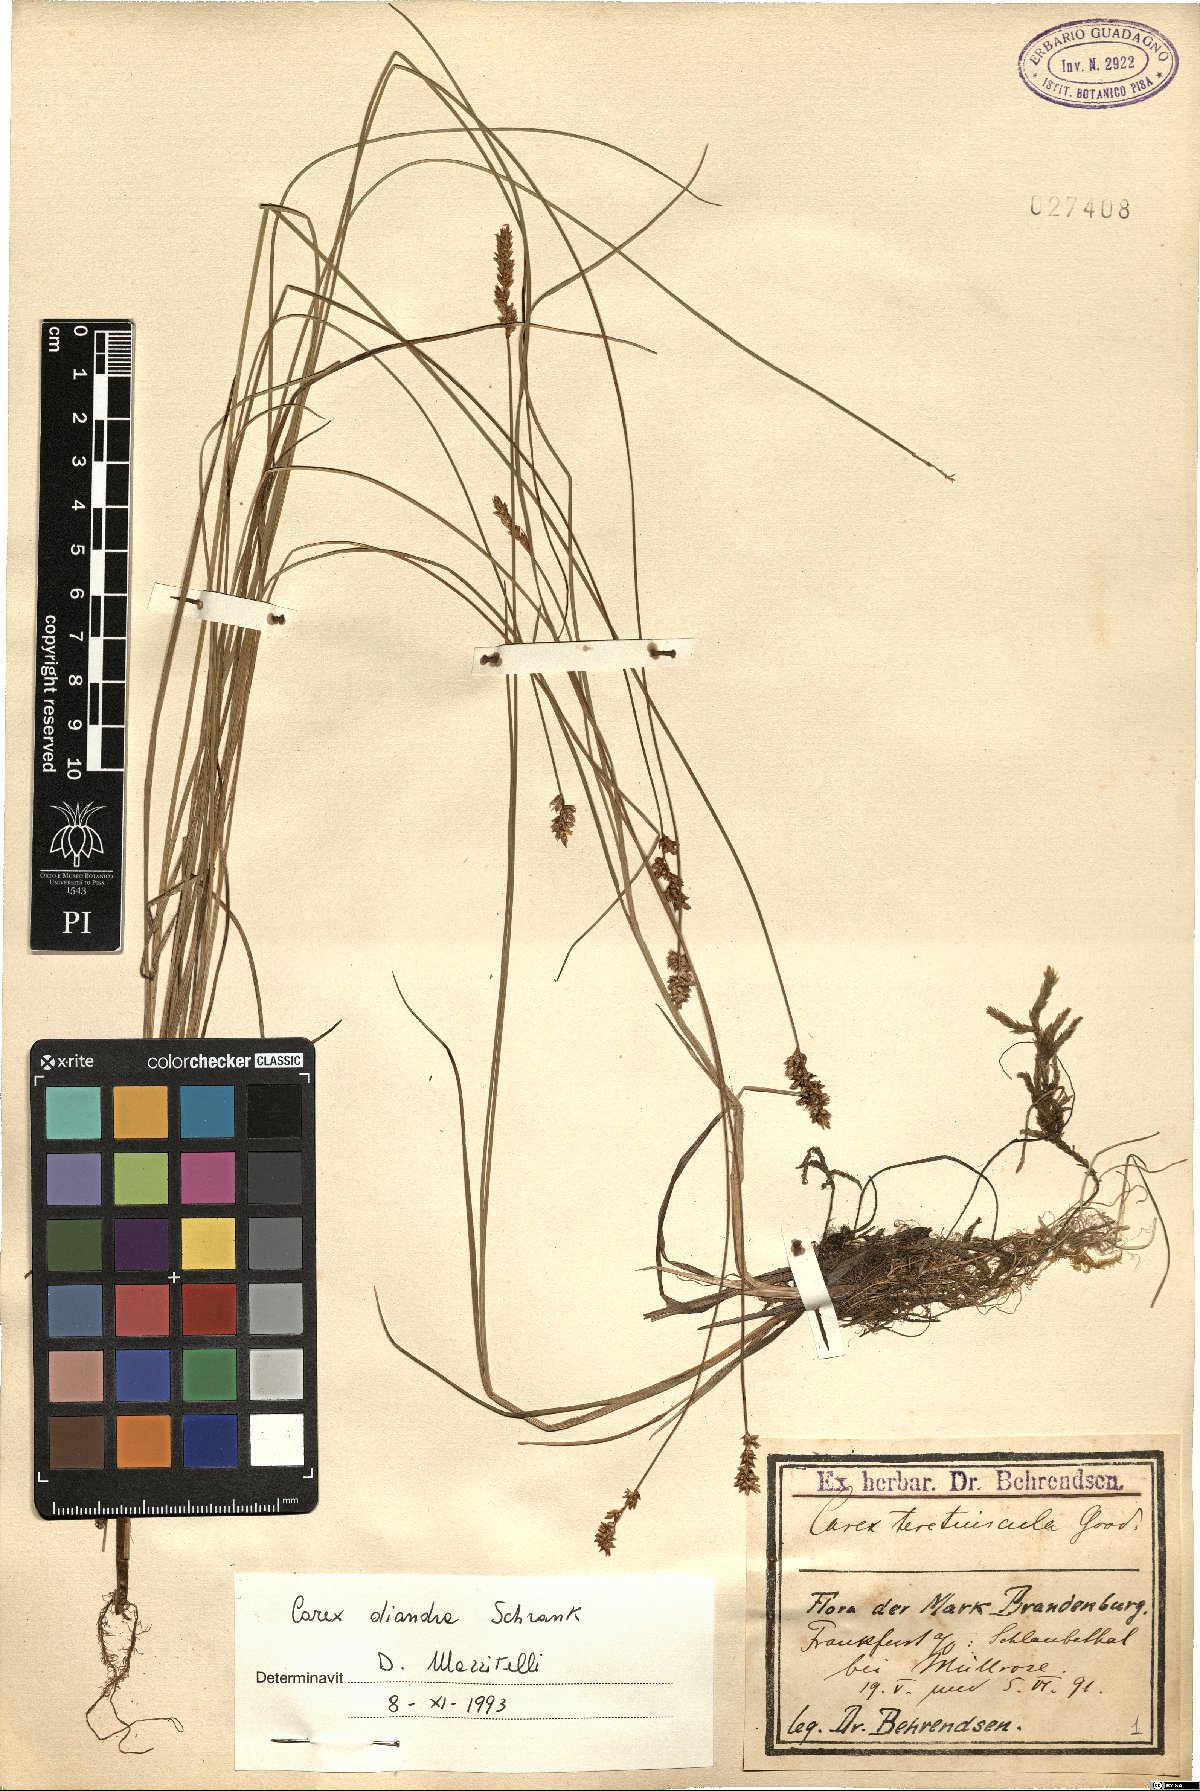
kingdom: Plantae
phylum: Tracheophyta
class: Liliopsida
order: Poales
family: Cyperaceae
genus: Carex
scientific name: Carex diandra
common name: Lesser tussock-sedge
